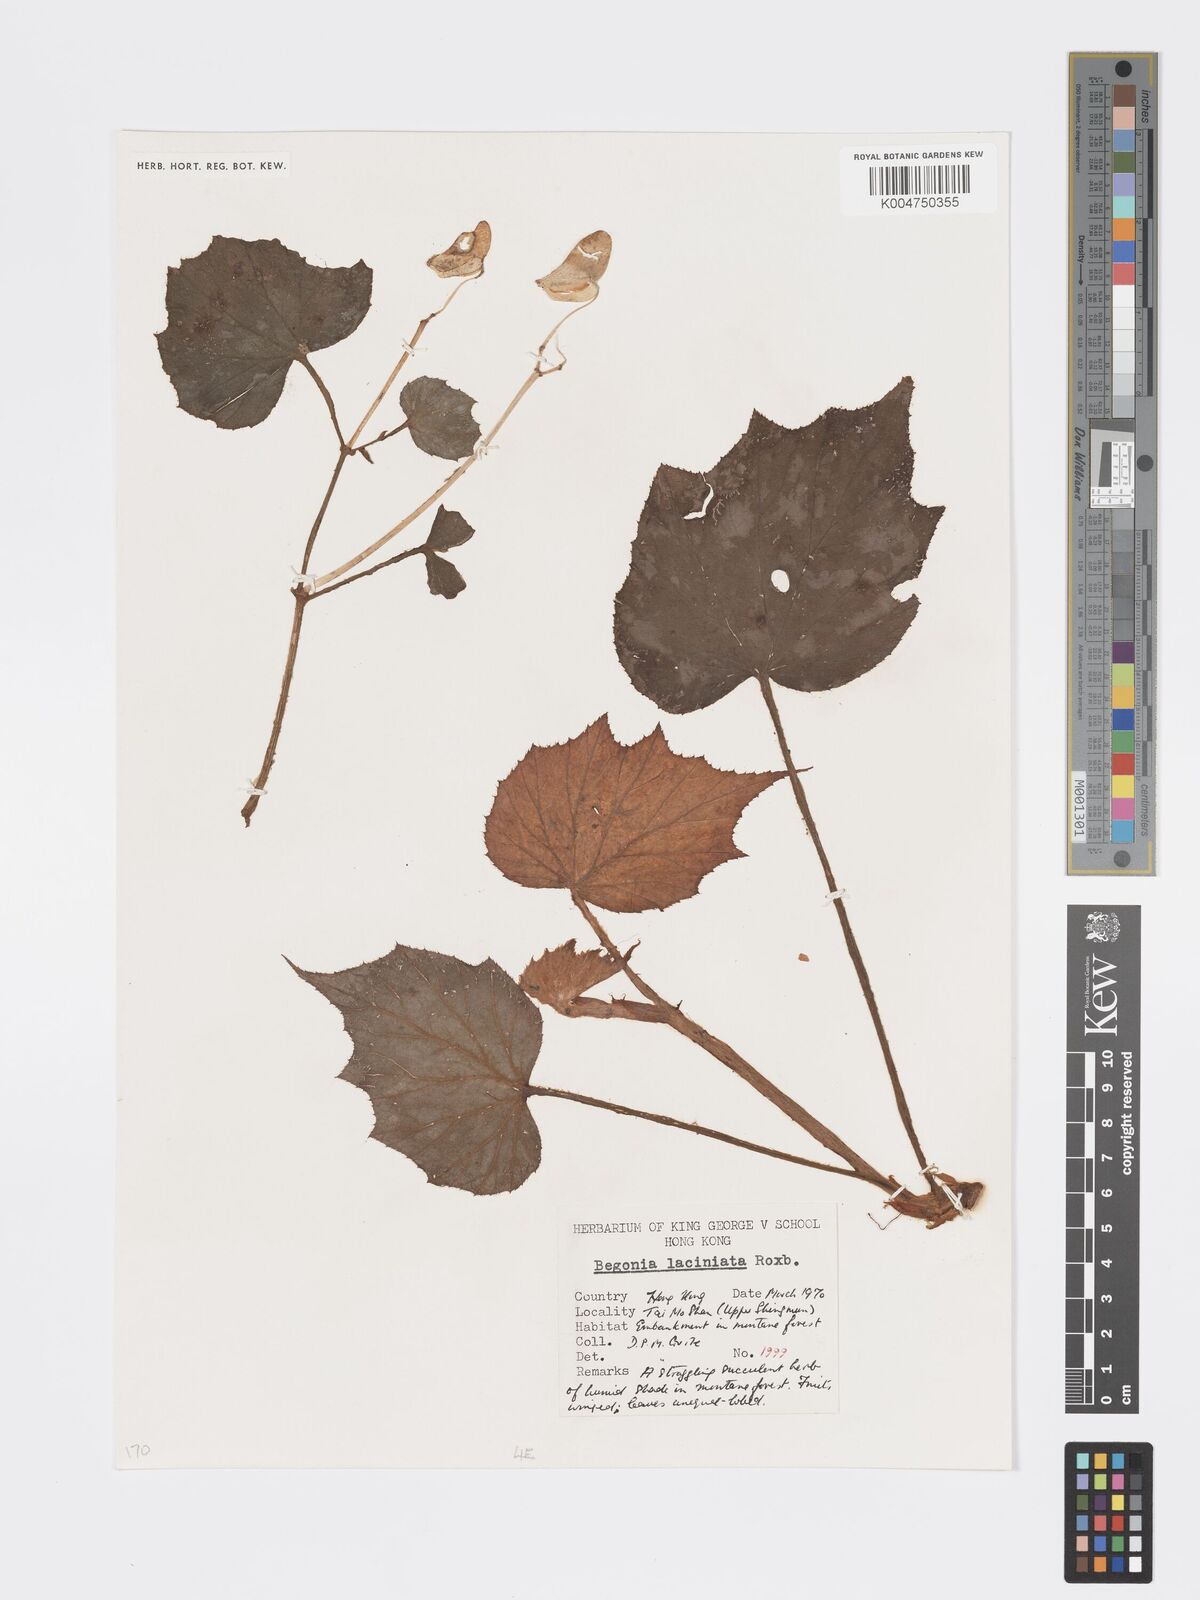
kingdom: Plantae
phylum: Tracheophyta
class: Magnoliopsida
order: Cucurbitales
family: Begoniaceae
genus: Begonia
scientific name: Begonia palmata
